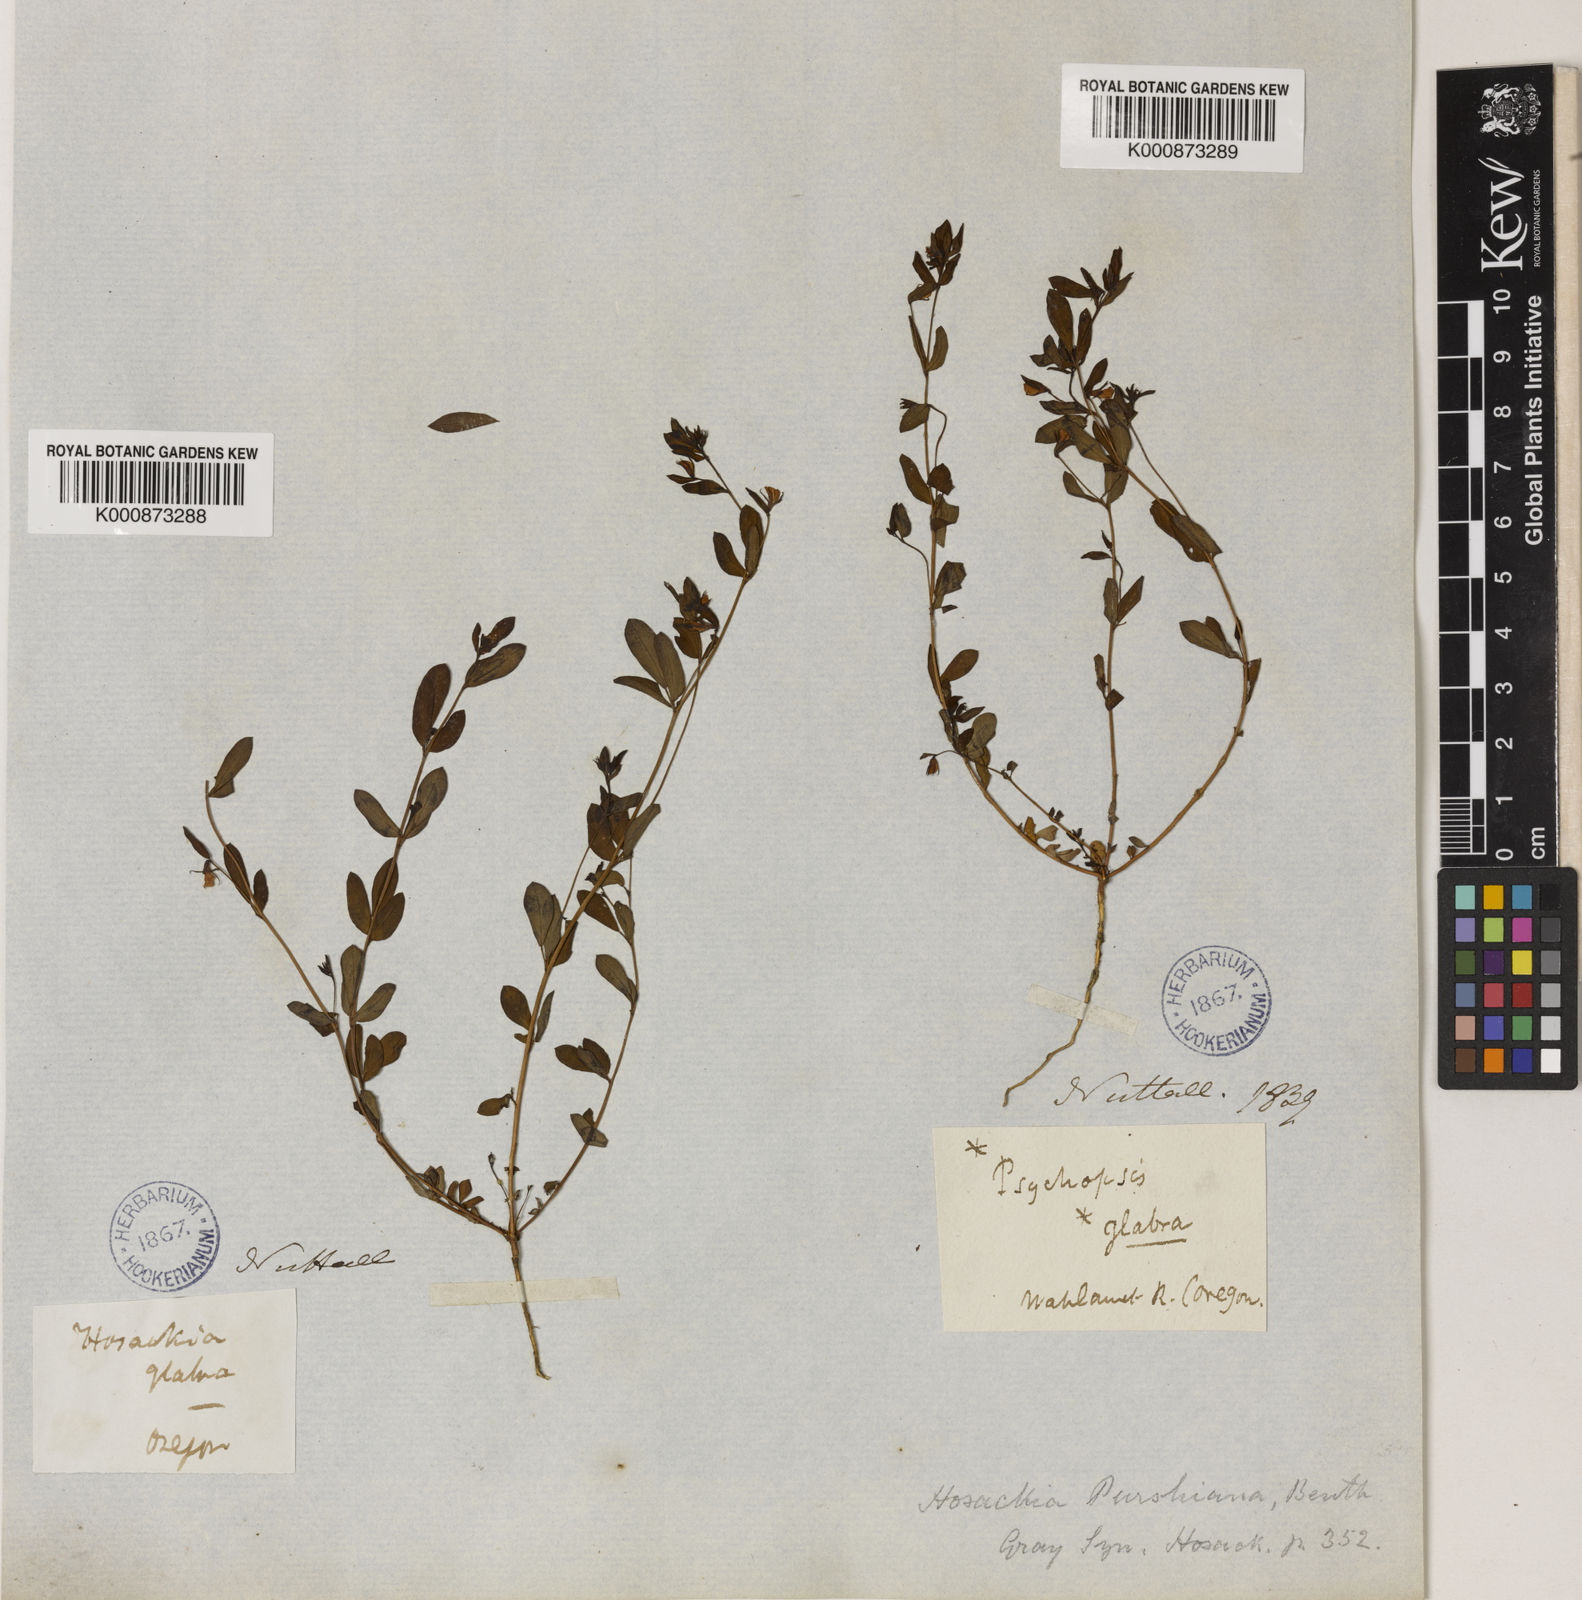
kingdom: Plantae
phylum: Tracheophyta
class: Magnoliopsida
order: Fabales
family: Fabaceae
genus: Collaea
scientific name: Collaea speciosa
